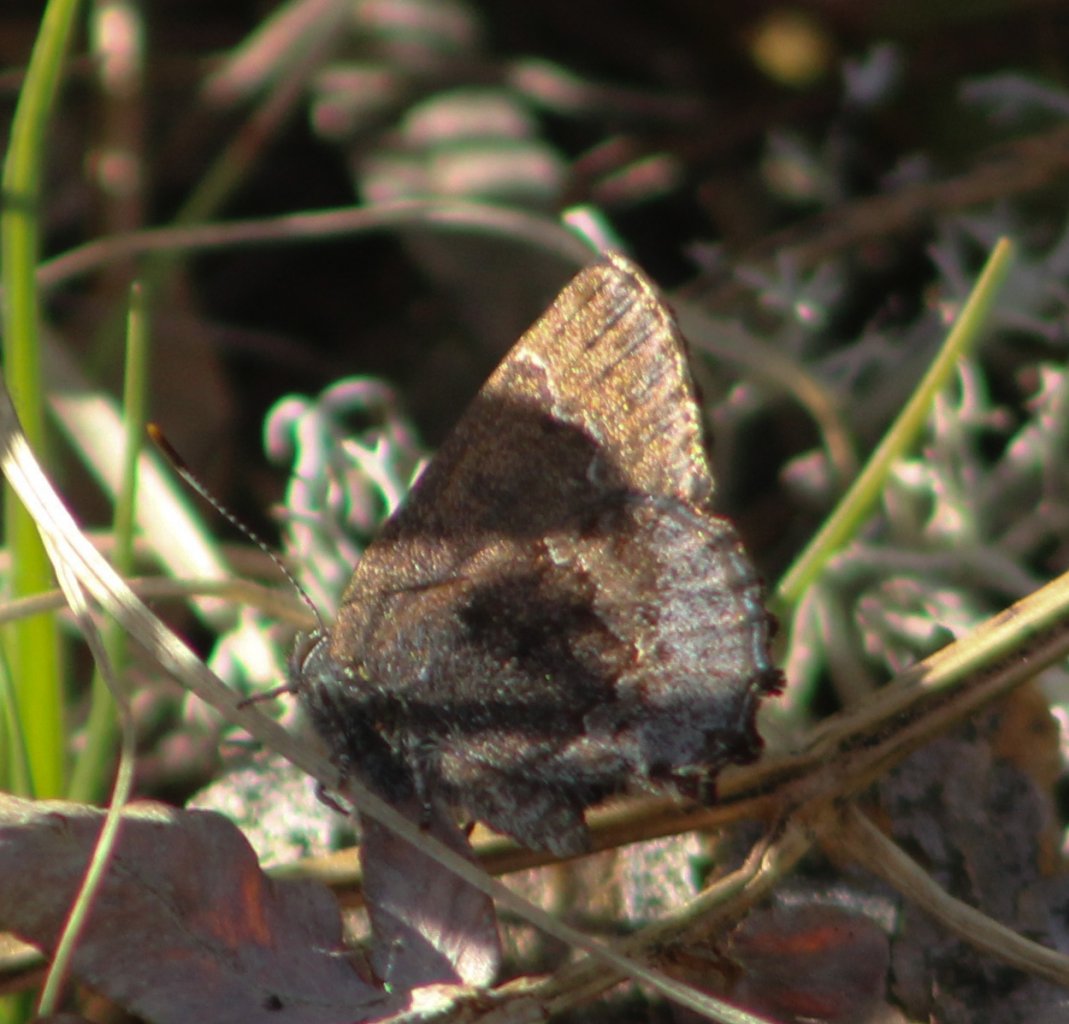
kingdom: Animalia
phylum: Arthropoda
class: Insecta
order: Lepidoptera
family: Lycaenidae
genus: Callophrys
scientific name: Callophrys polios
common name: Hoary Elfin
